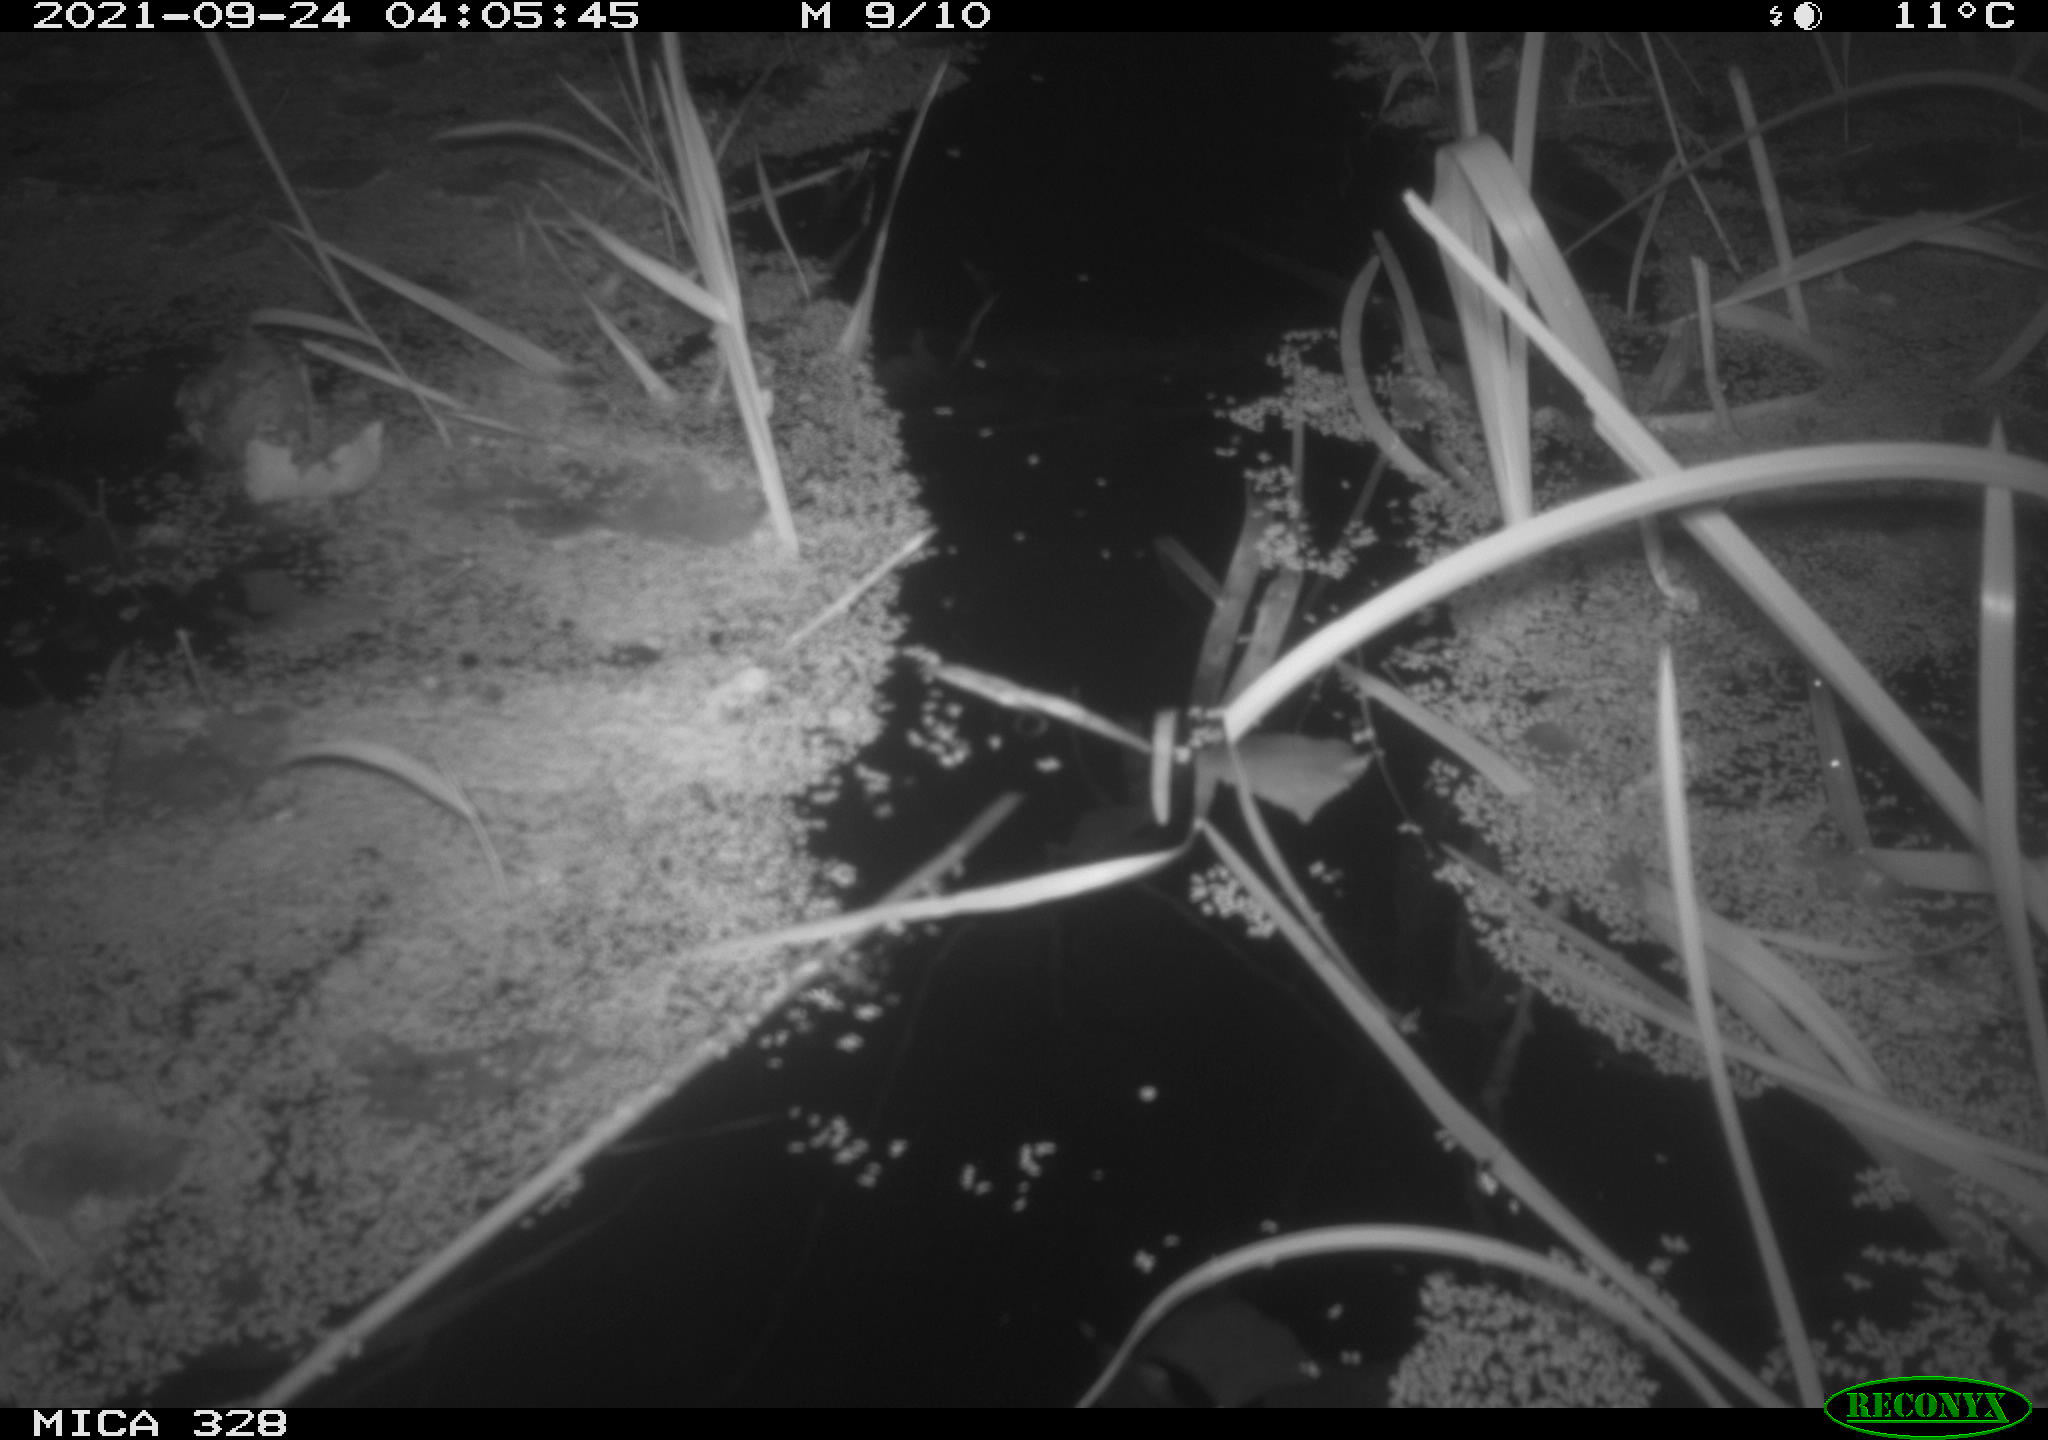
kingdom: Animalia
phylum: Chordata
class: Mammalia
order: Rodentia
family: Cricetidae
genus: Ondatra
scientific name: Ondatra zibethicus
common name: Muskrat
